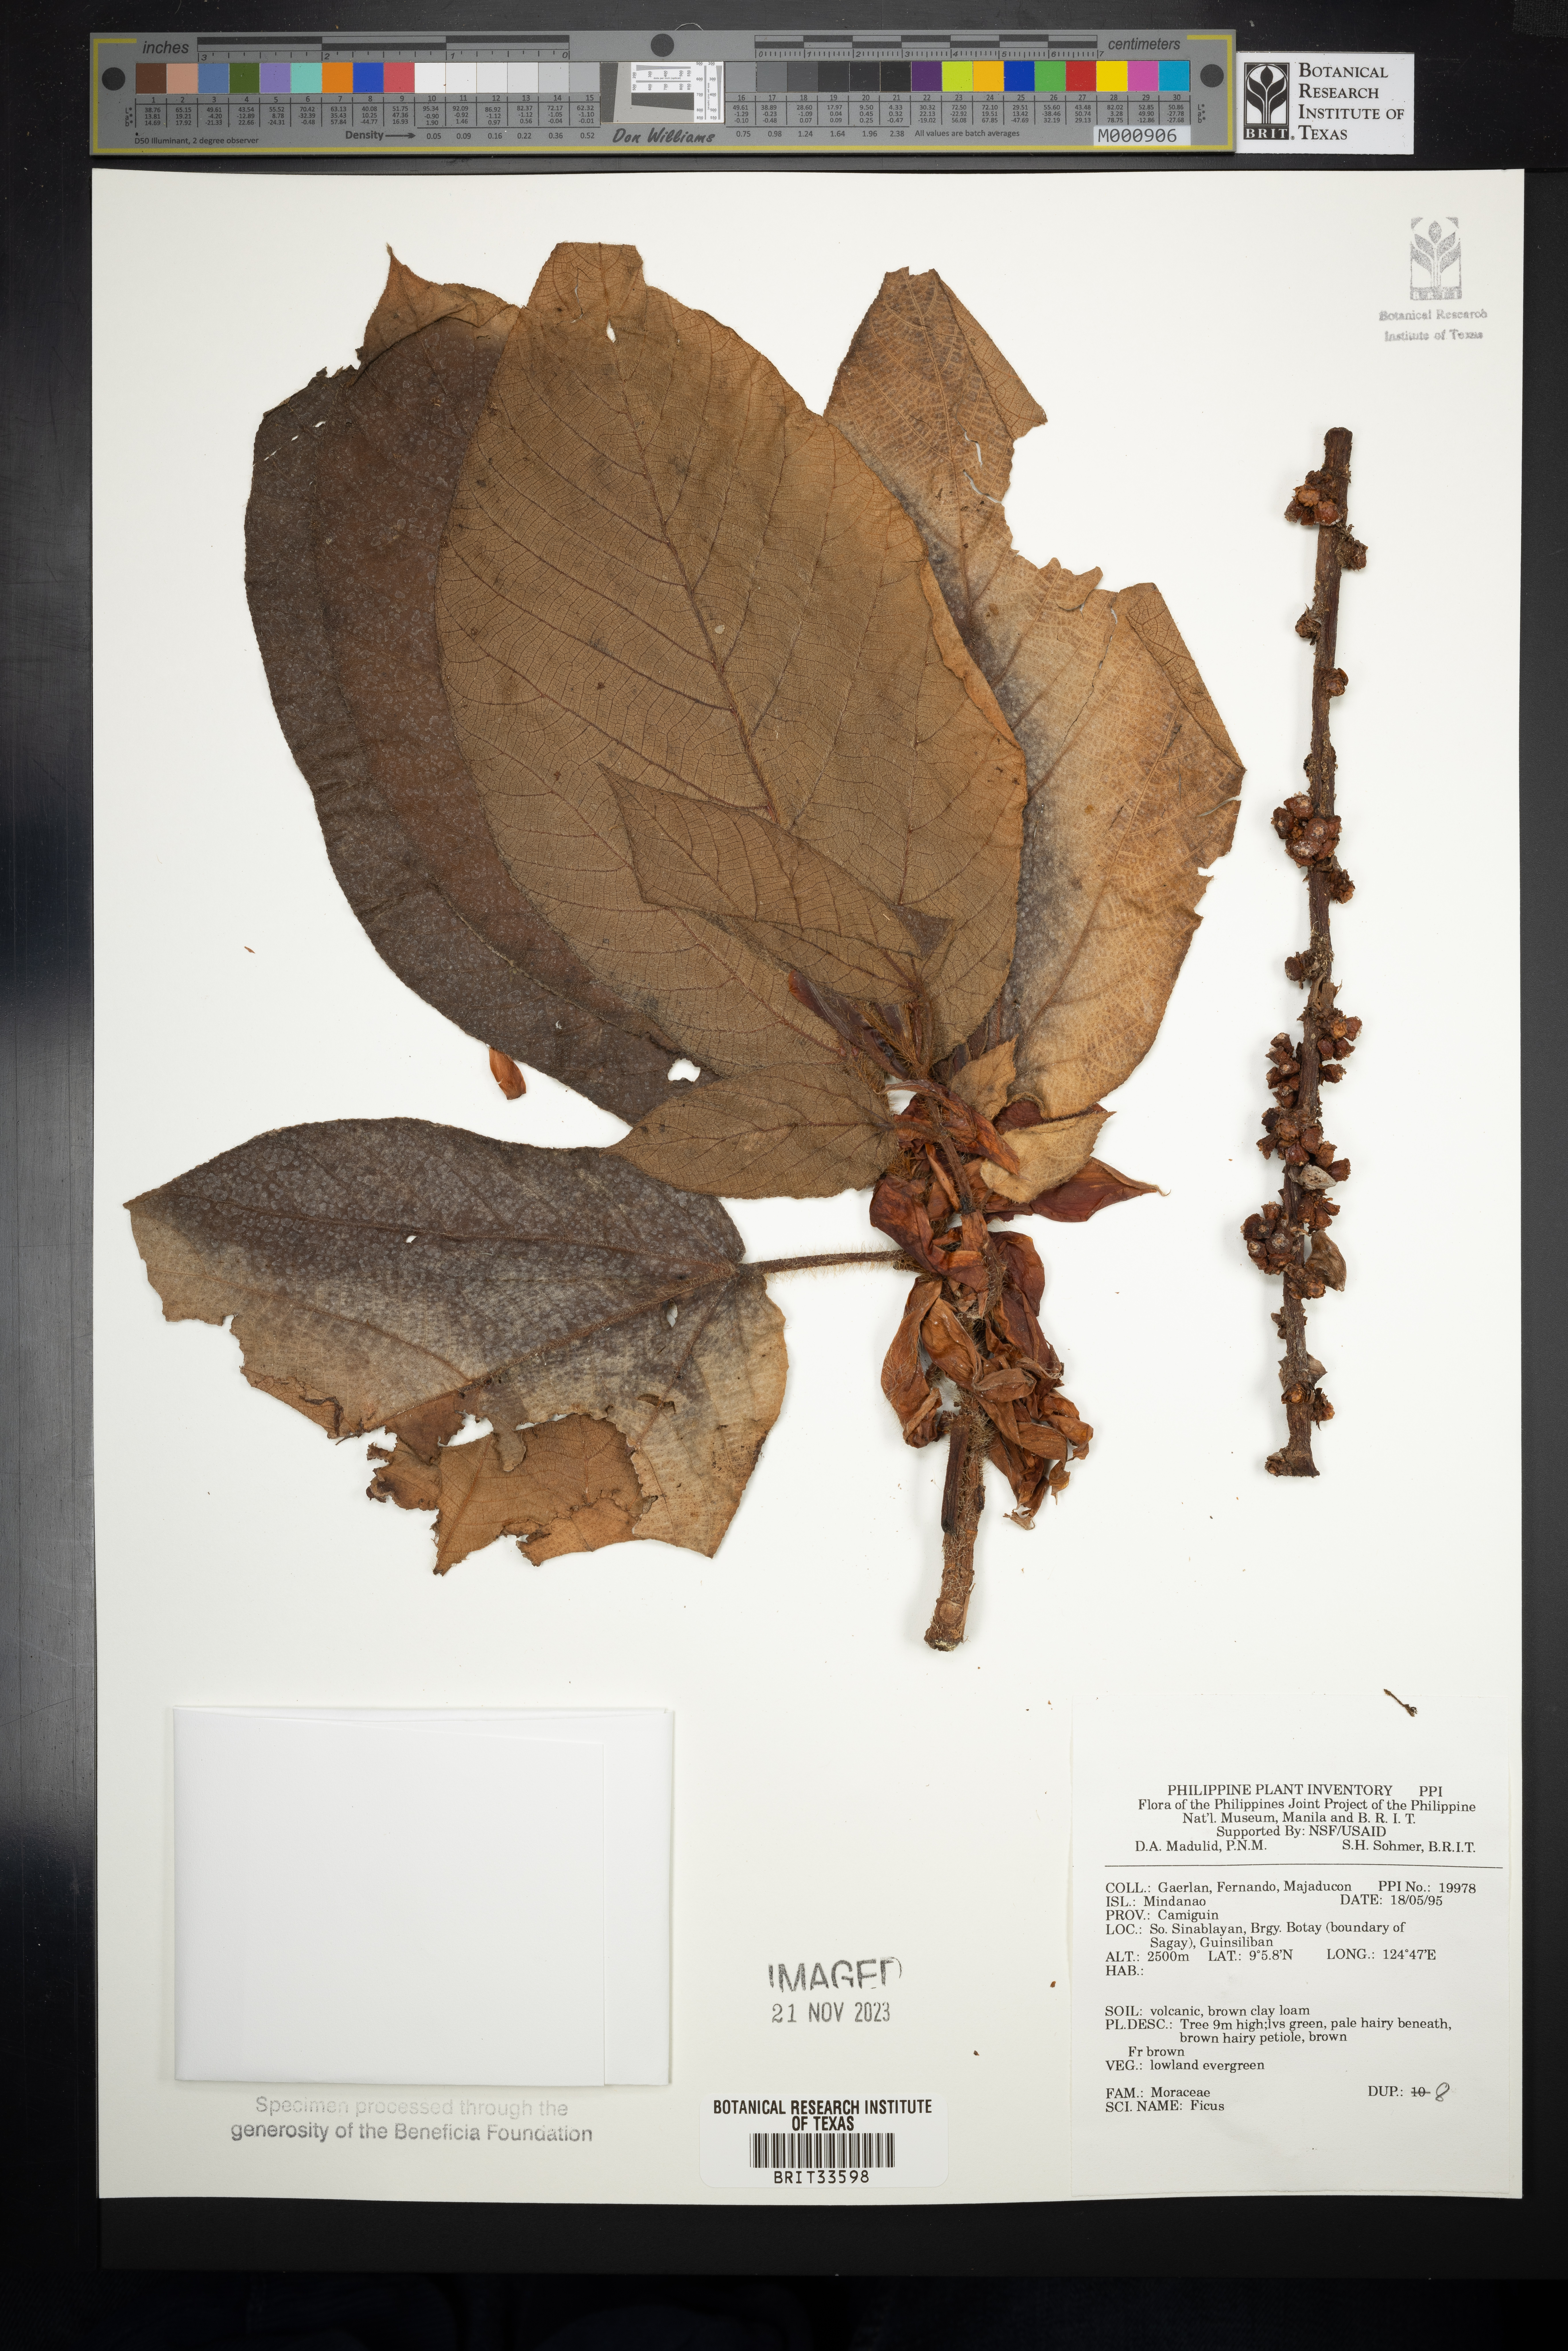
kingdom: Plantae
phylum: Tracheophyta
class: Magnoliopsida
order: Rosales
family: Moraceae
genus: Ficus
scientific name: Ficus
